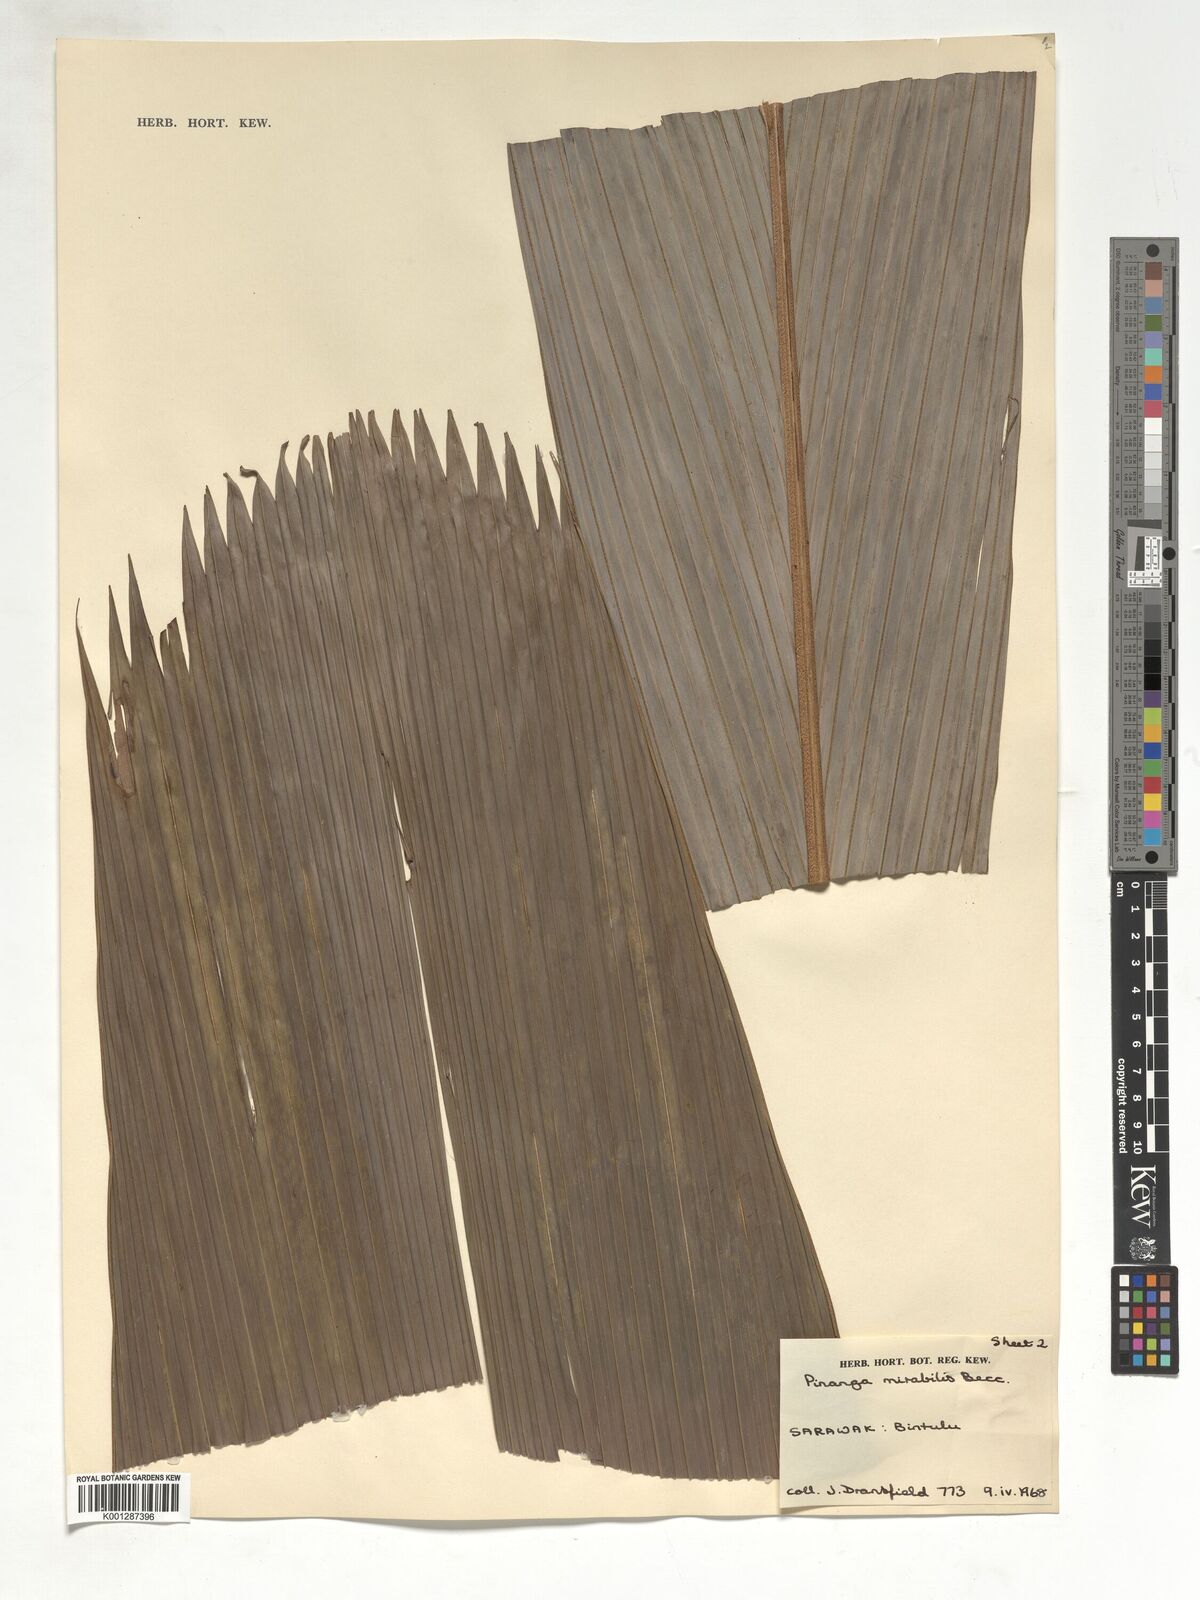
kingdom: Plantae
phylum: Tracheophyta
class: Liliopsida
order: Arecales
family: Arecaceae
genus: Pinanga
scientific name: Pinanga mirabilis
